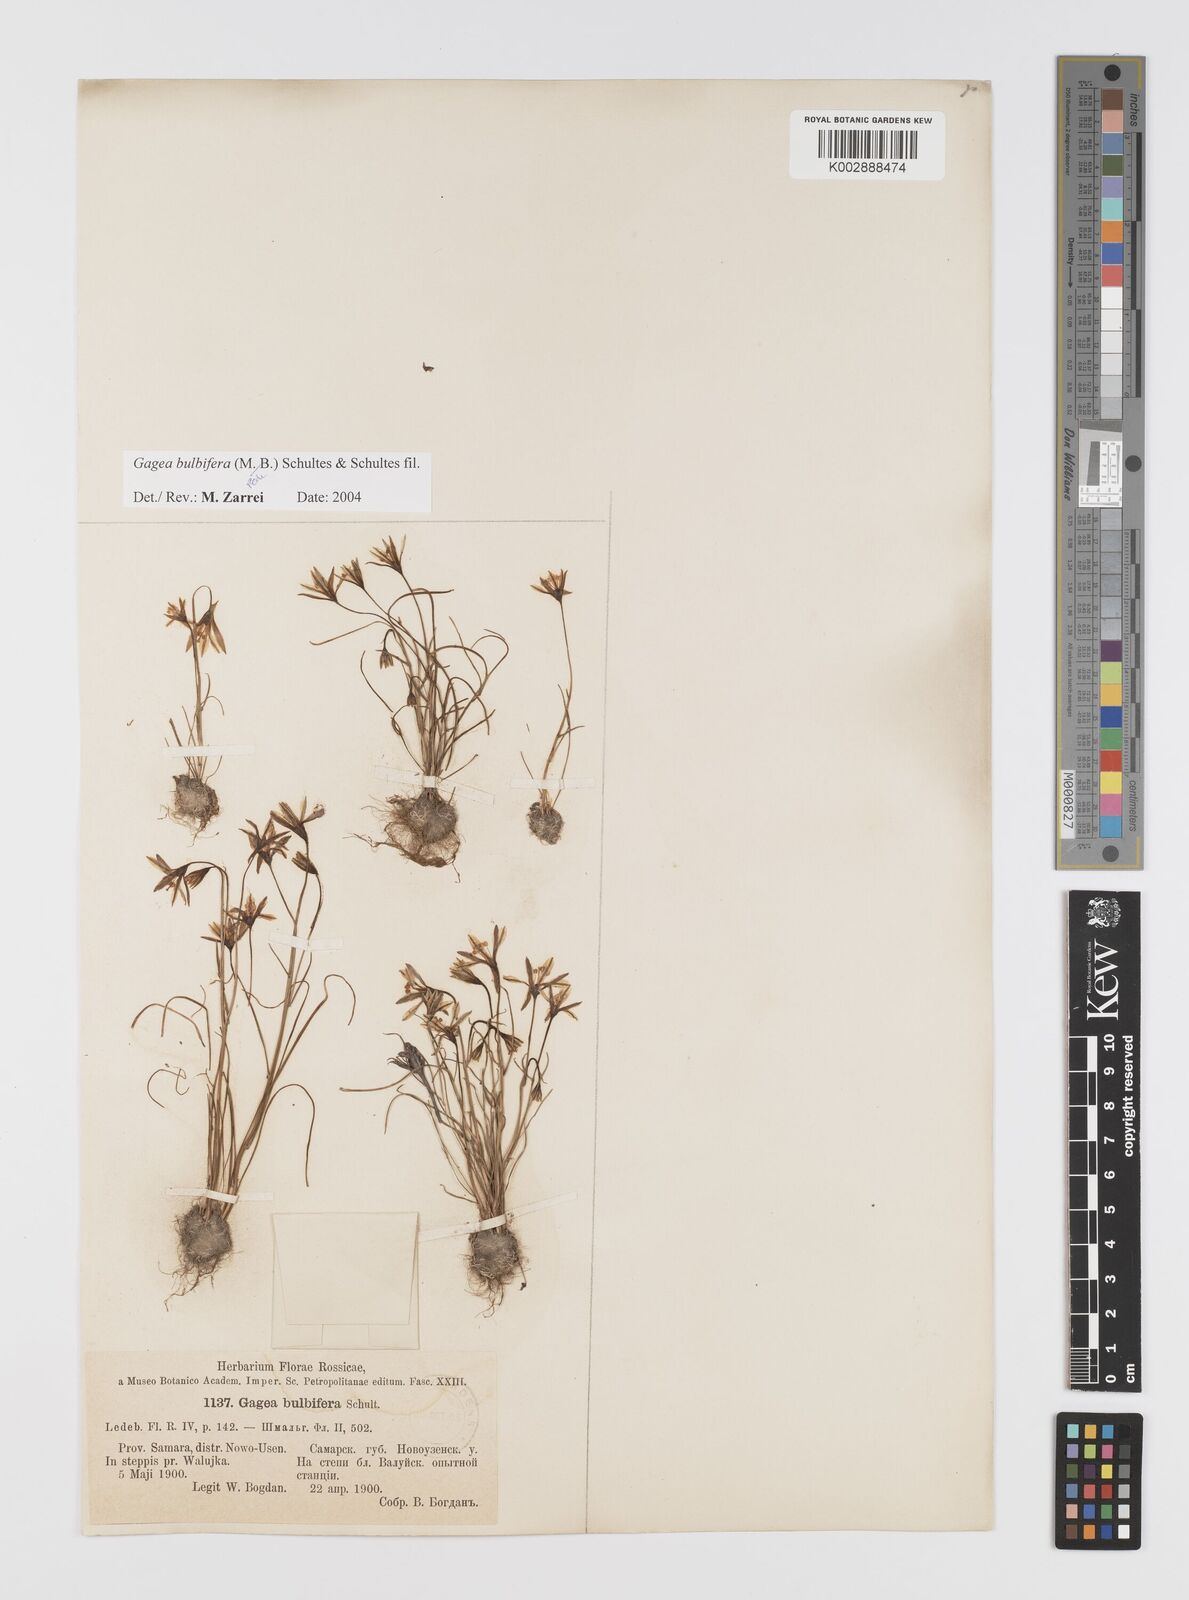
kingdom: Plantae
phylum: Tracheophyta
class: Liliopsida
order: Liliales
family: Liliaceae
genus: Gagea
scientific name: Gagea bulbifera
